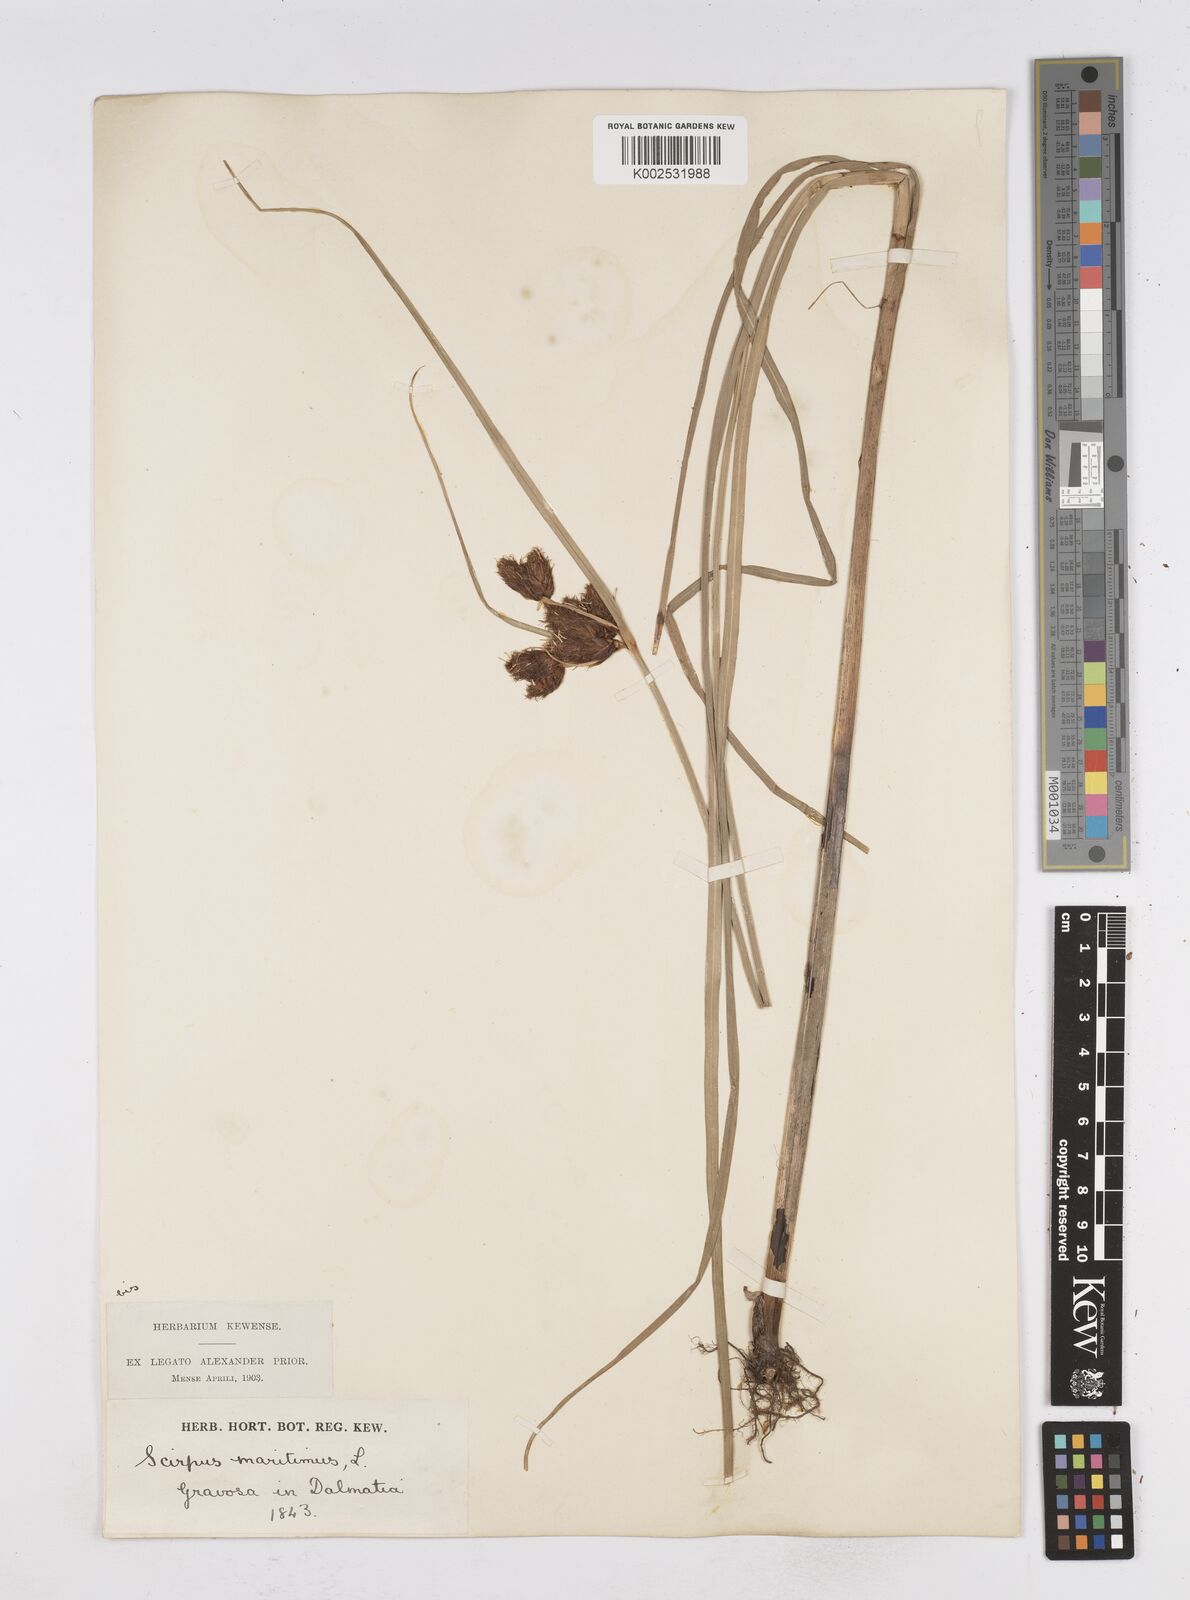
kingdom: Plantae
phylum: Tracheophyta
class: Liliopsida
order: Poales
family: Cyperaceae
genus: Bolboschoenus
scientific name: Bolboschoenus maritimus
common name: Sea club-rush
